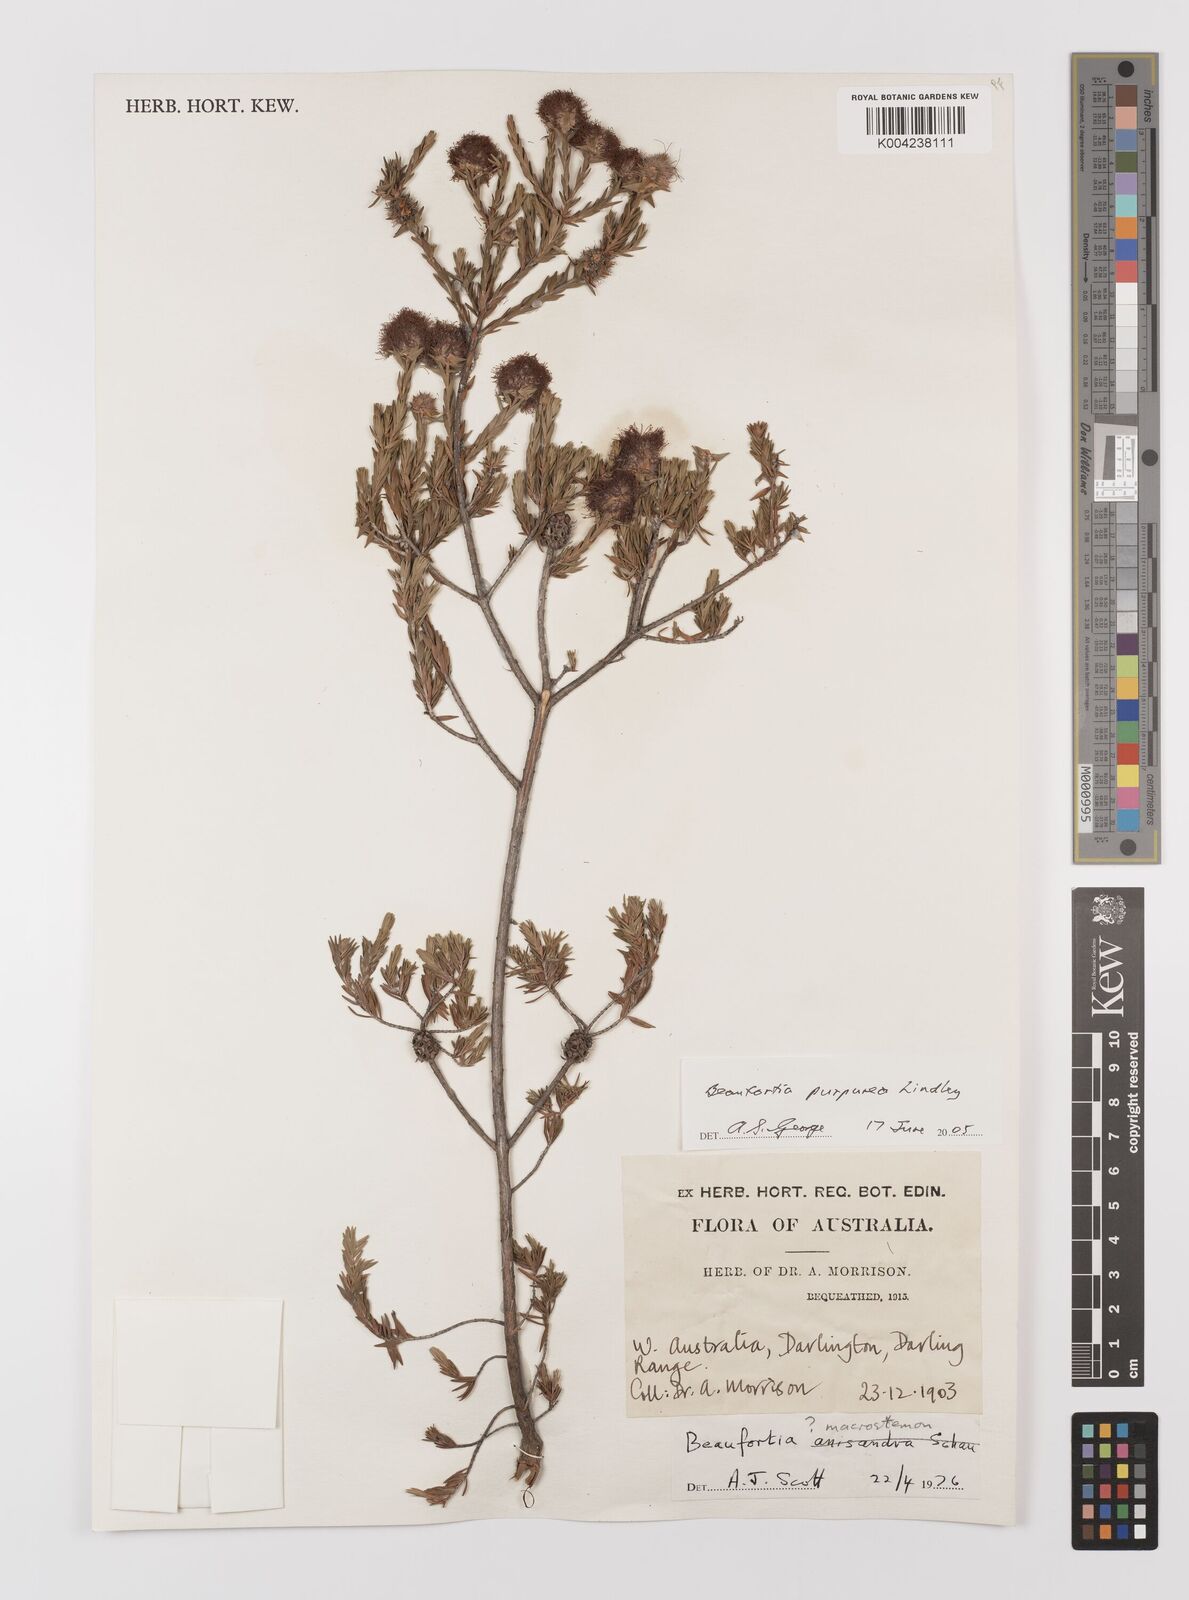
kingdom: Plantae
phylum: Tracheophyta
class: Magnoliopsida
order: Myrtales
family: Myrtaceae
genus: Melaleuca
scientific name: Melaleuca purpurea
